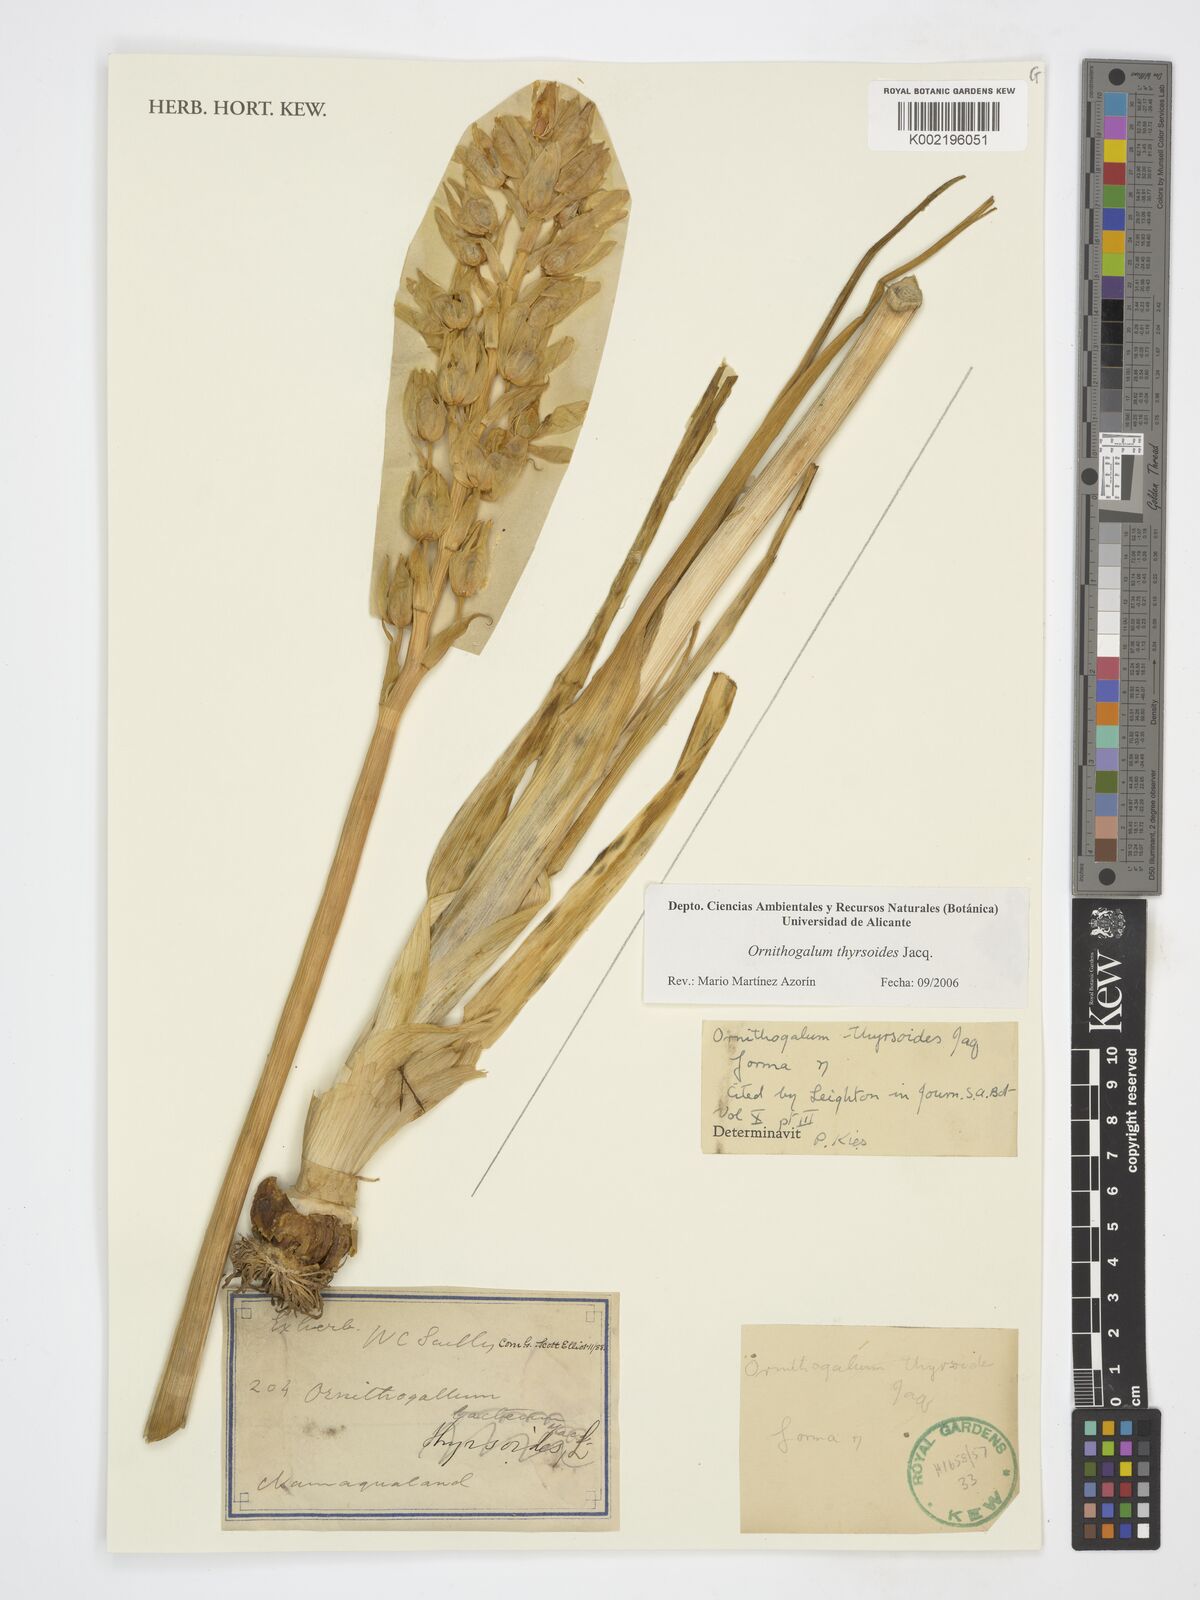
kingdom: Plantae
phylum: Tracheophyta
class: Liliopsida
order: Asparagales
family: Asparagaceae
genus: Ornithogalum
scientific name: Ornithogalum
